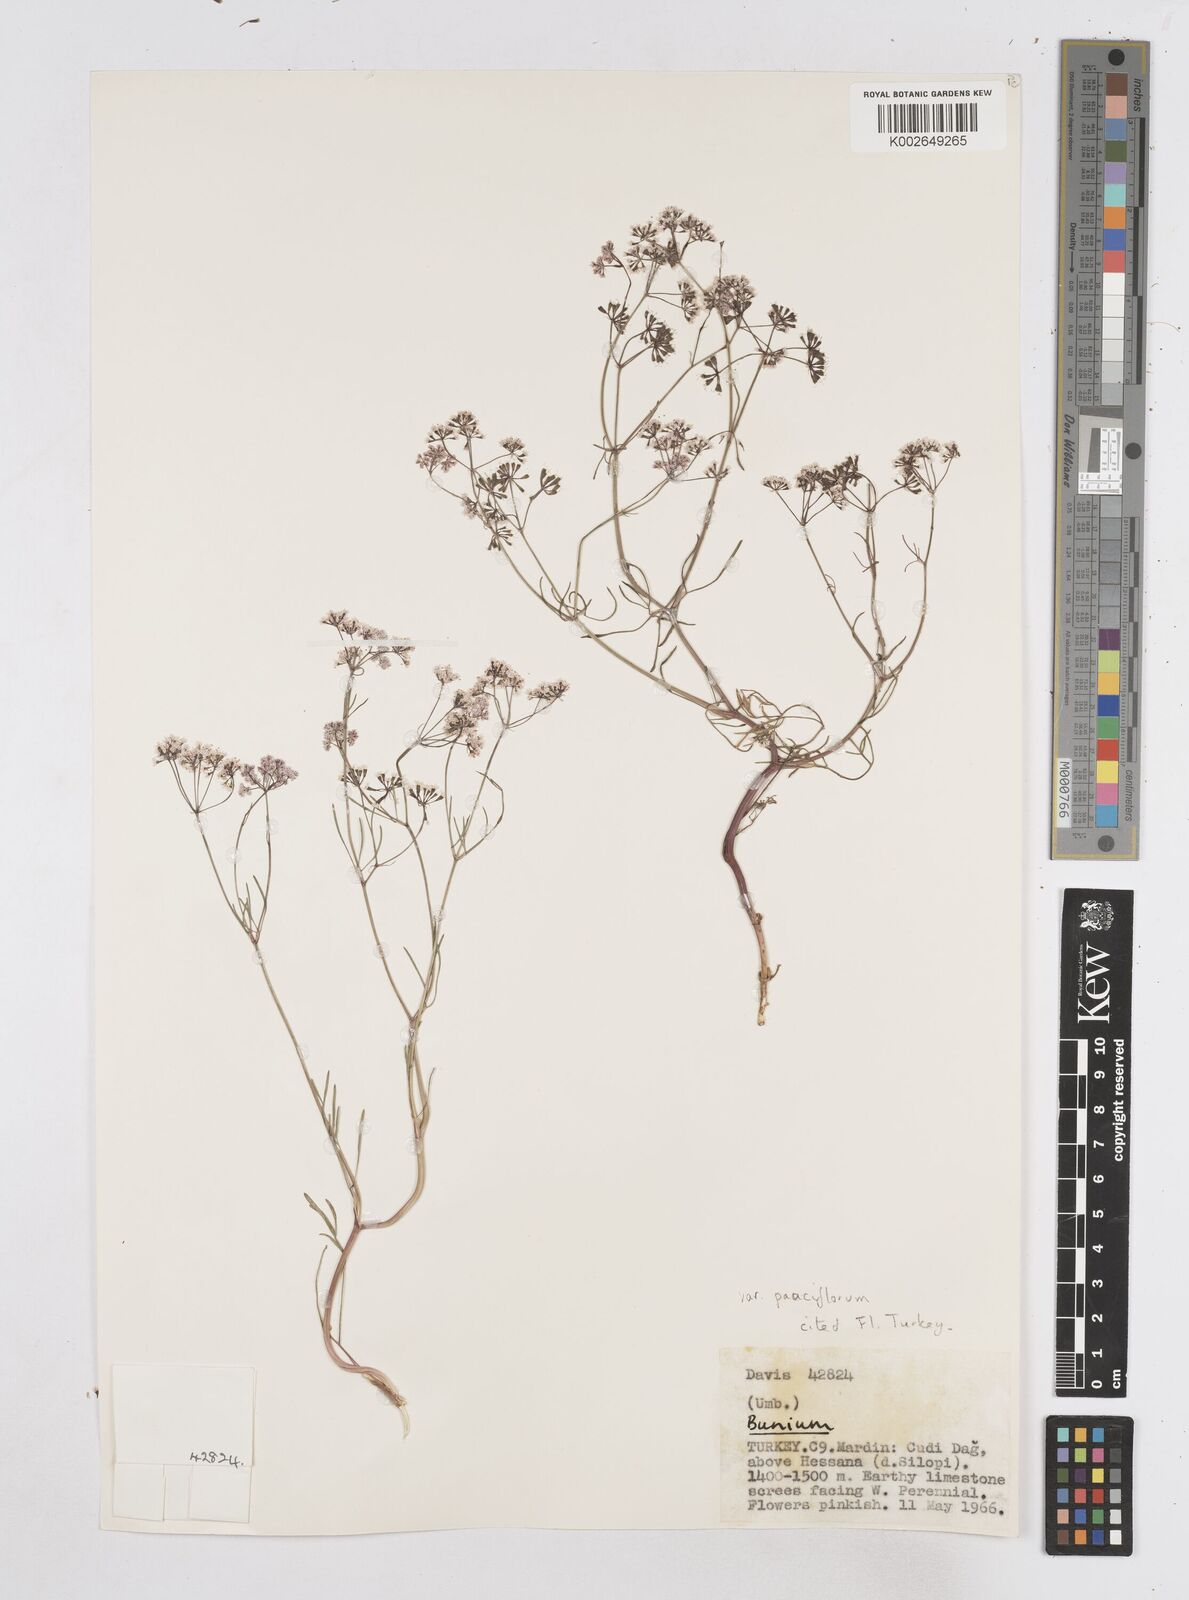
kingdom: Plantae
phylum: Tracheophyta
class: Magnoliopsida
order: Apiales
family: Apiaceae
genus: Bunium
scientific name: Bunium
